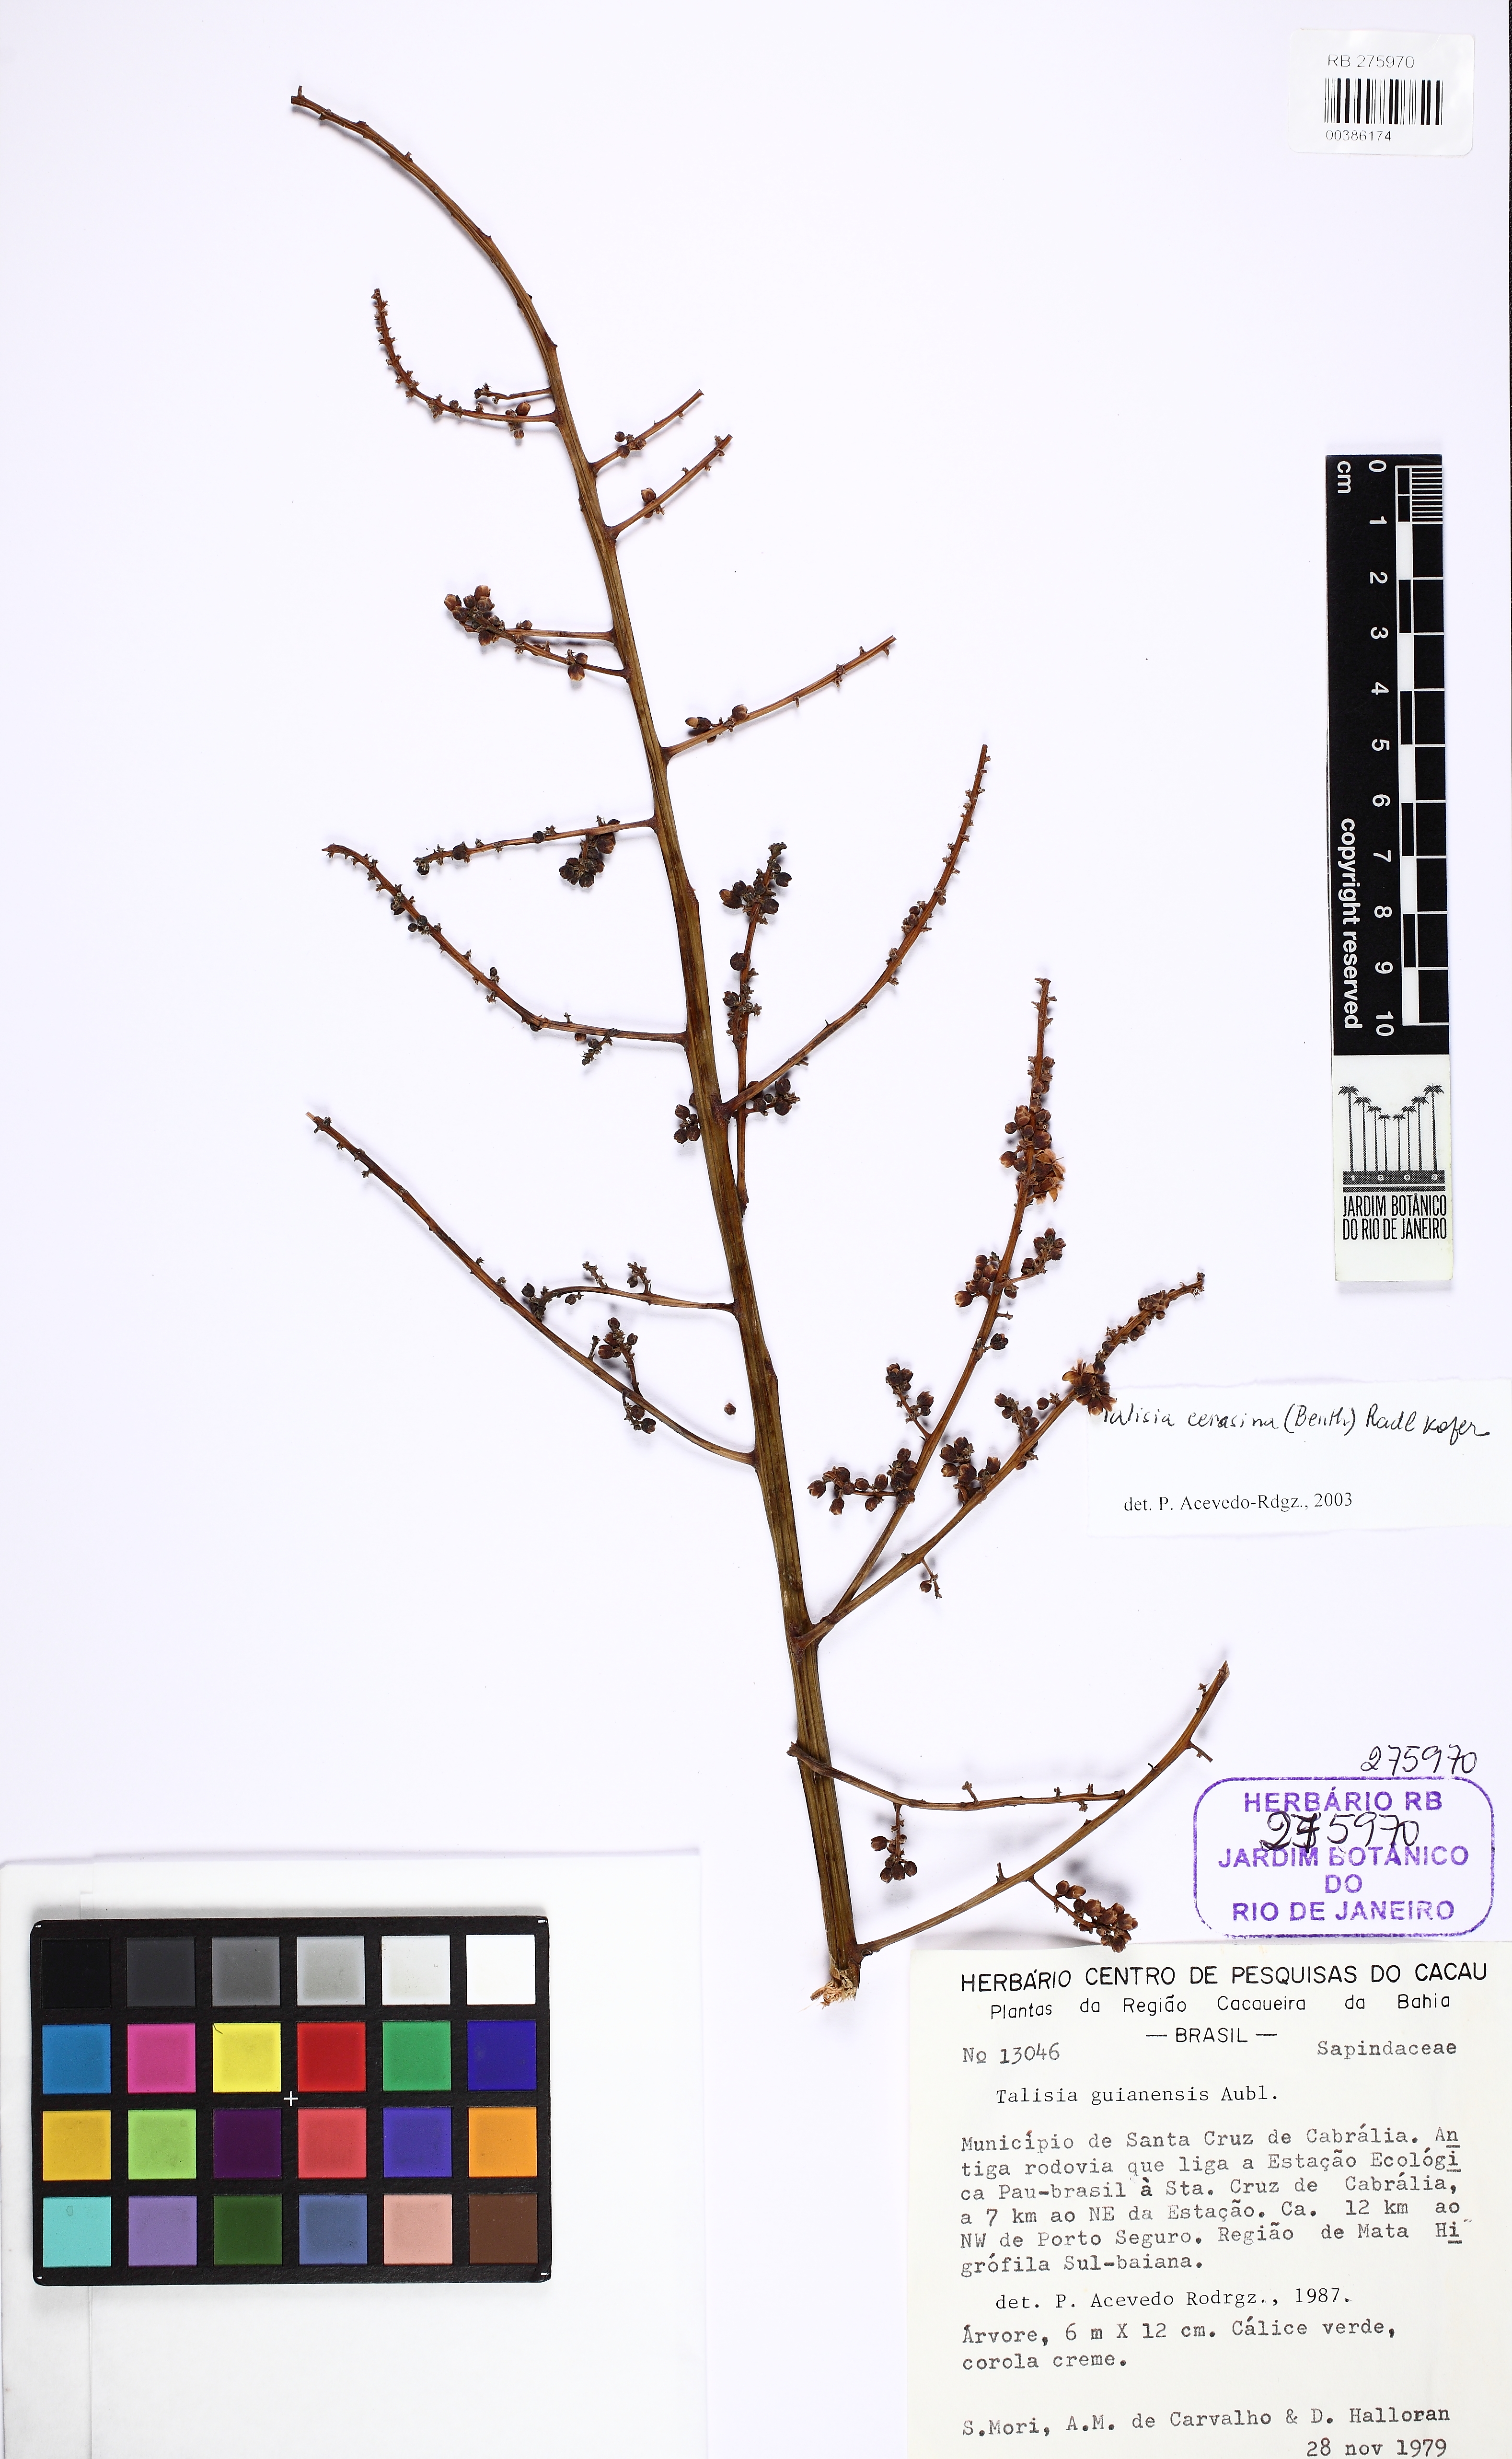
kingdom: Plantae
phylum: Tracheophyta
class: Magnoliopsida
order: Sapindales
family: Sapindaceae
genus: Talisia
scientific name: Talisia guianensis
